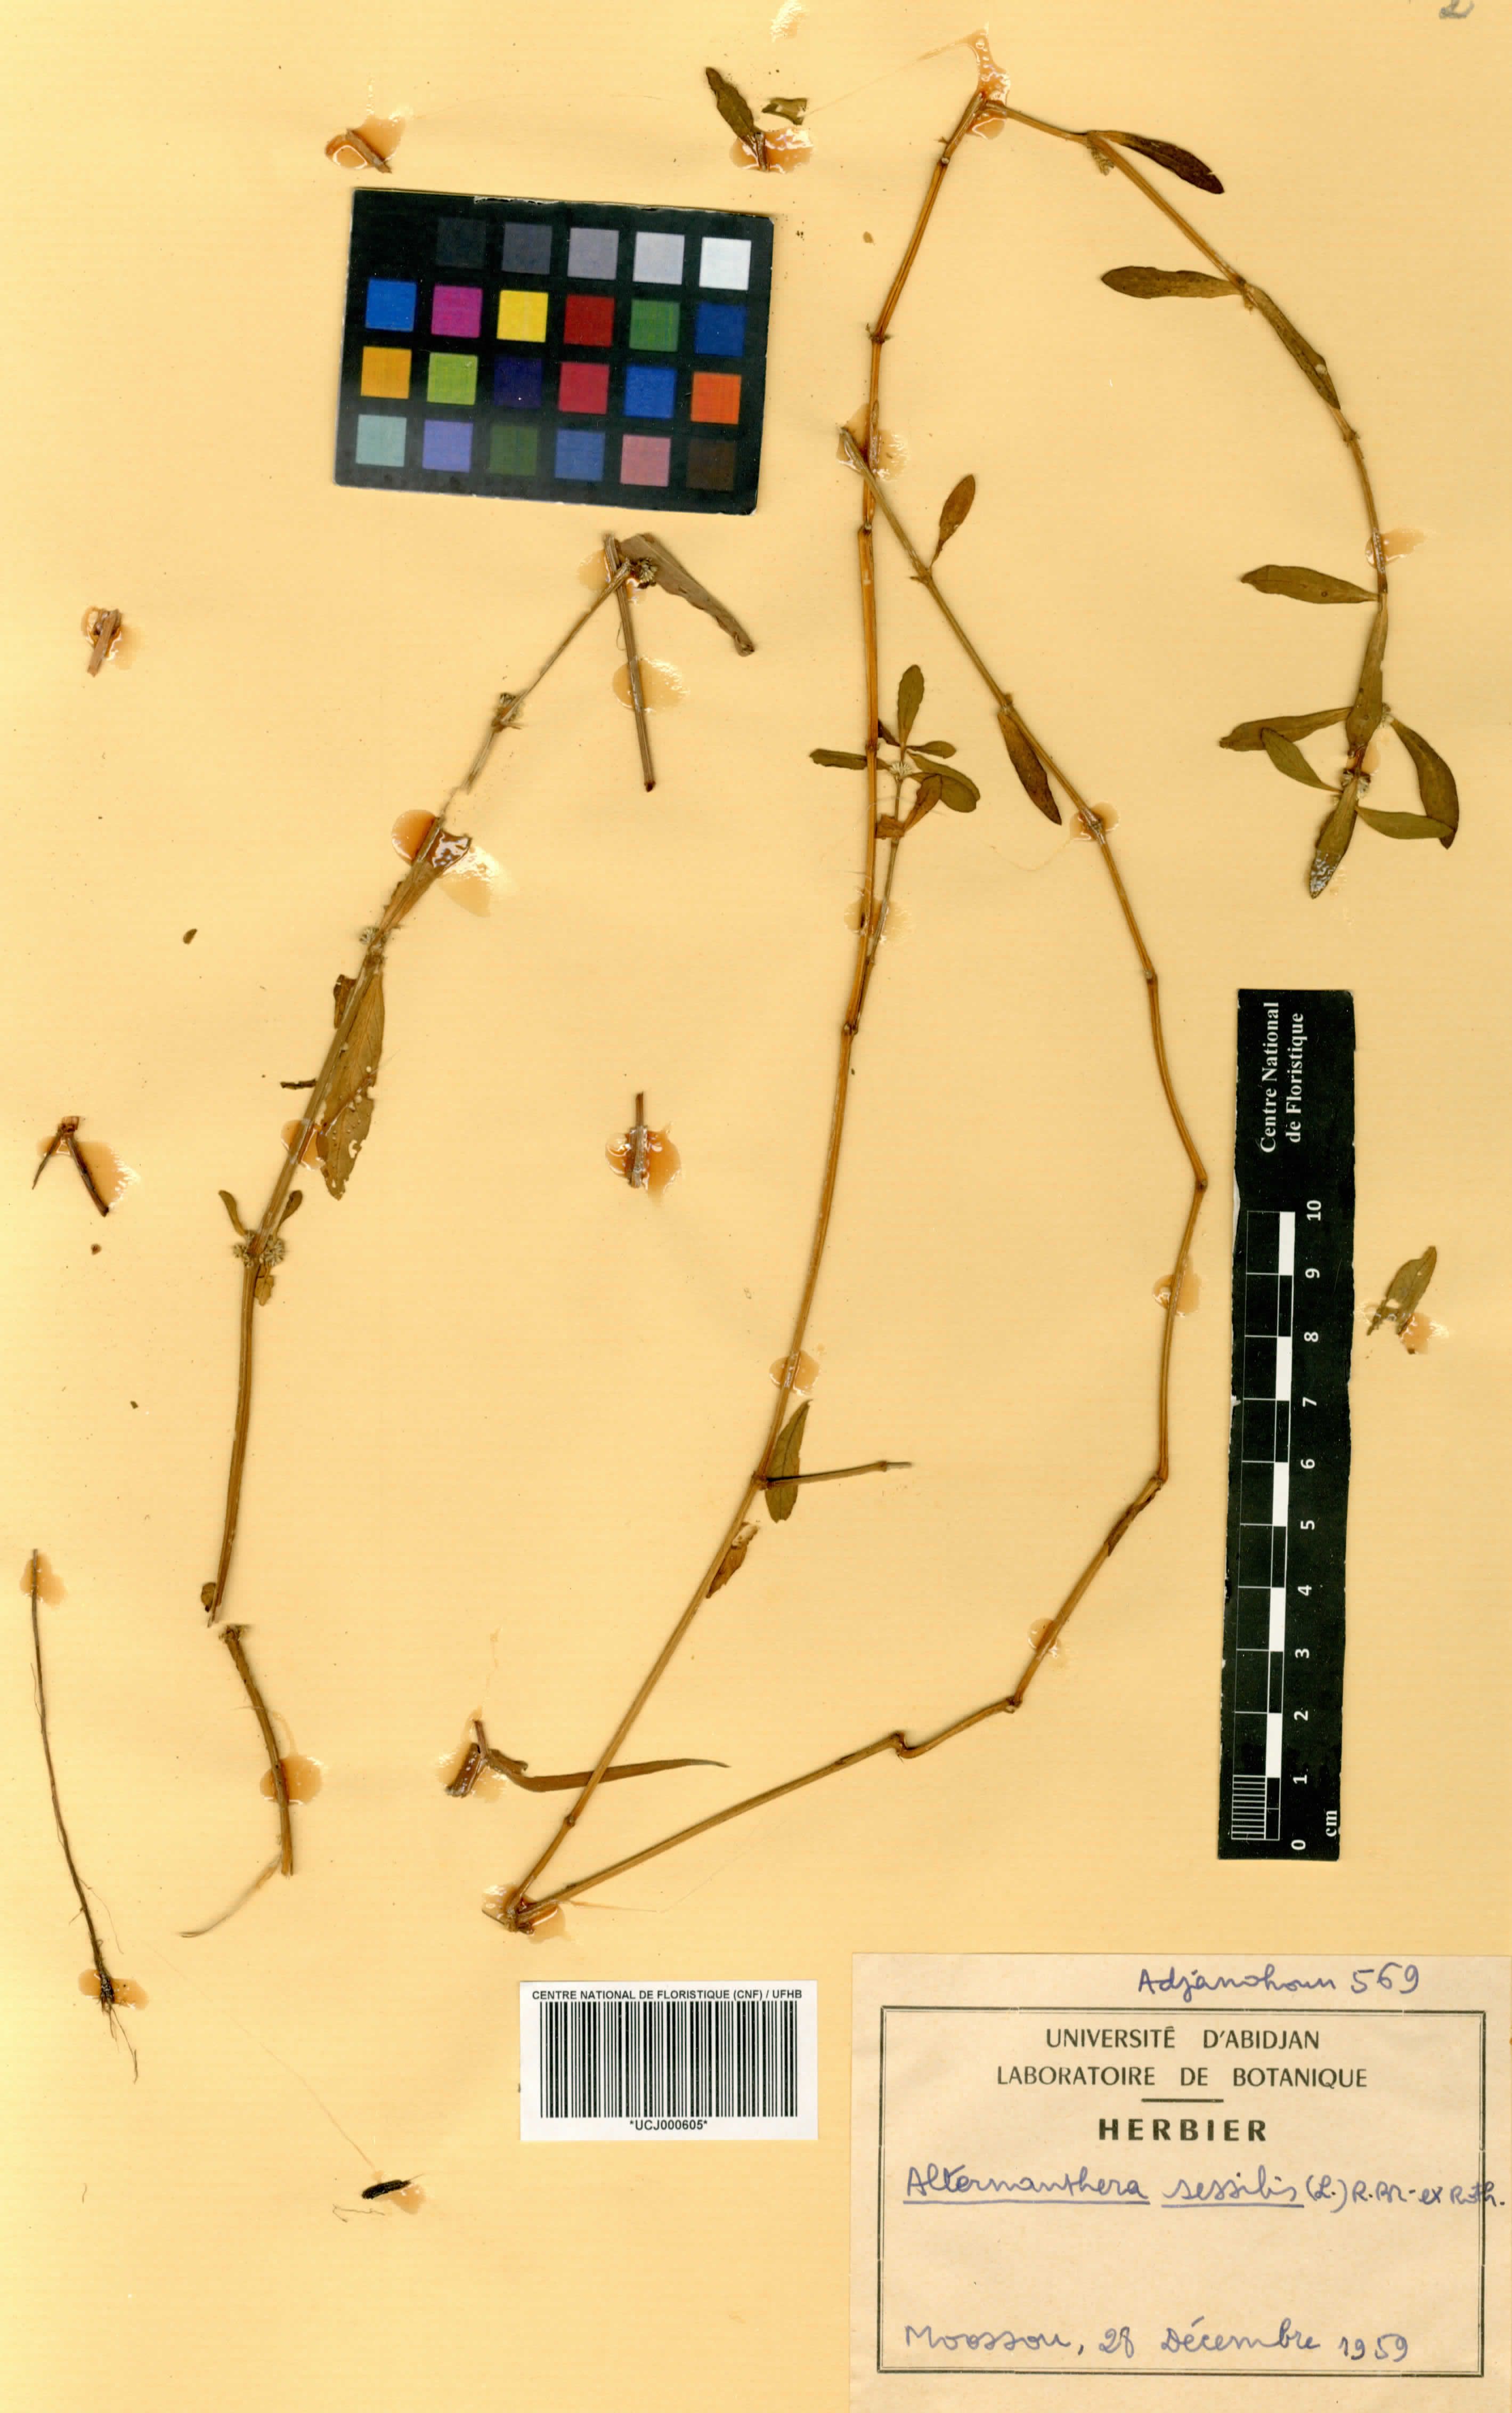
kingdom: Plantae
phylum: Tracheophyta
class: Magnoliopsida
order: Caryophyllales
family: Amaranthaceae
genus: Alternanthera
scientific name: Alternanthera sessilis
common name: Sessile joyweed
